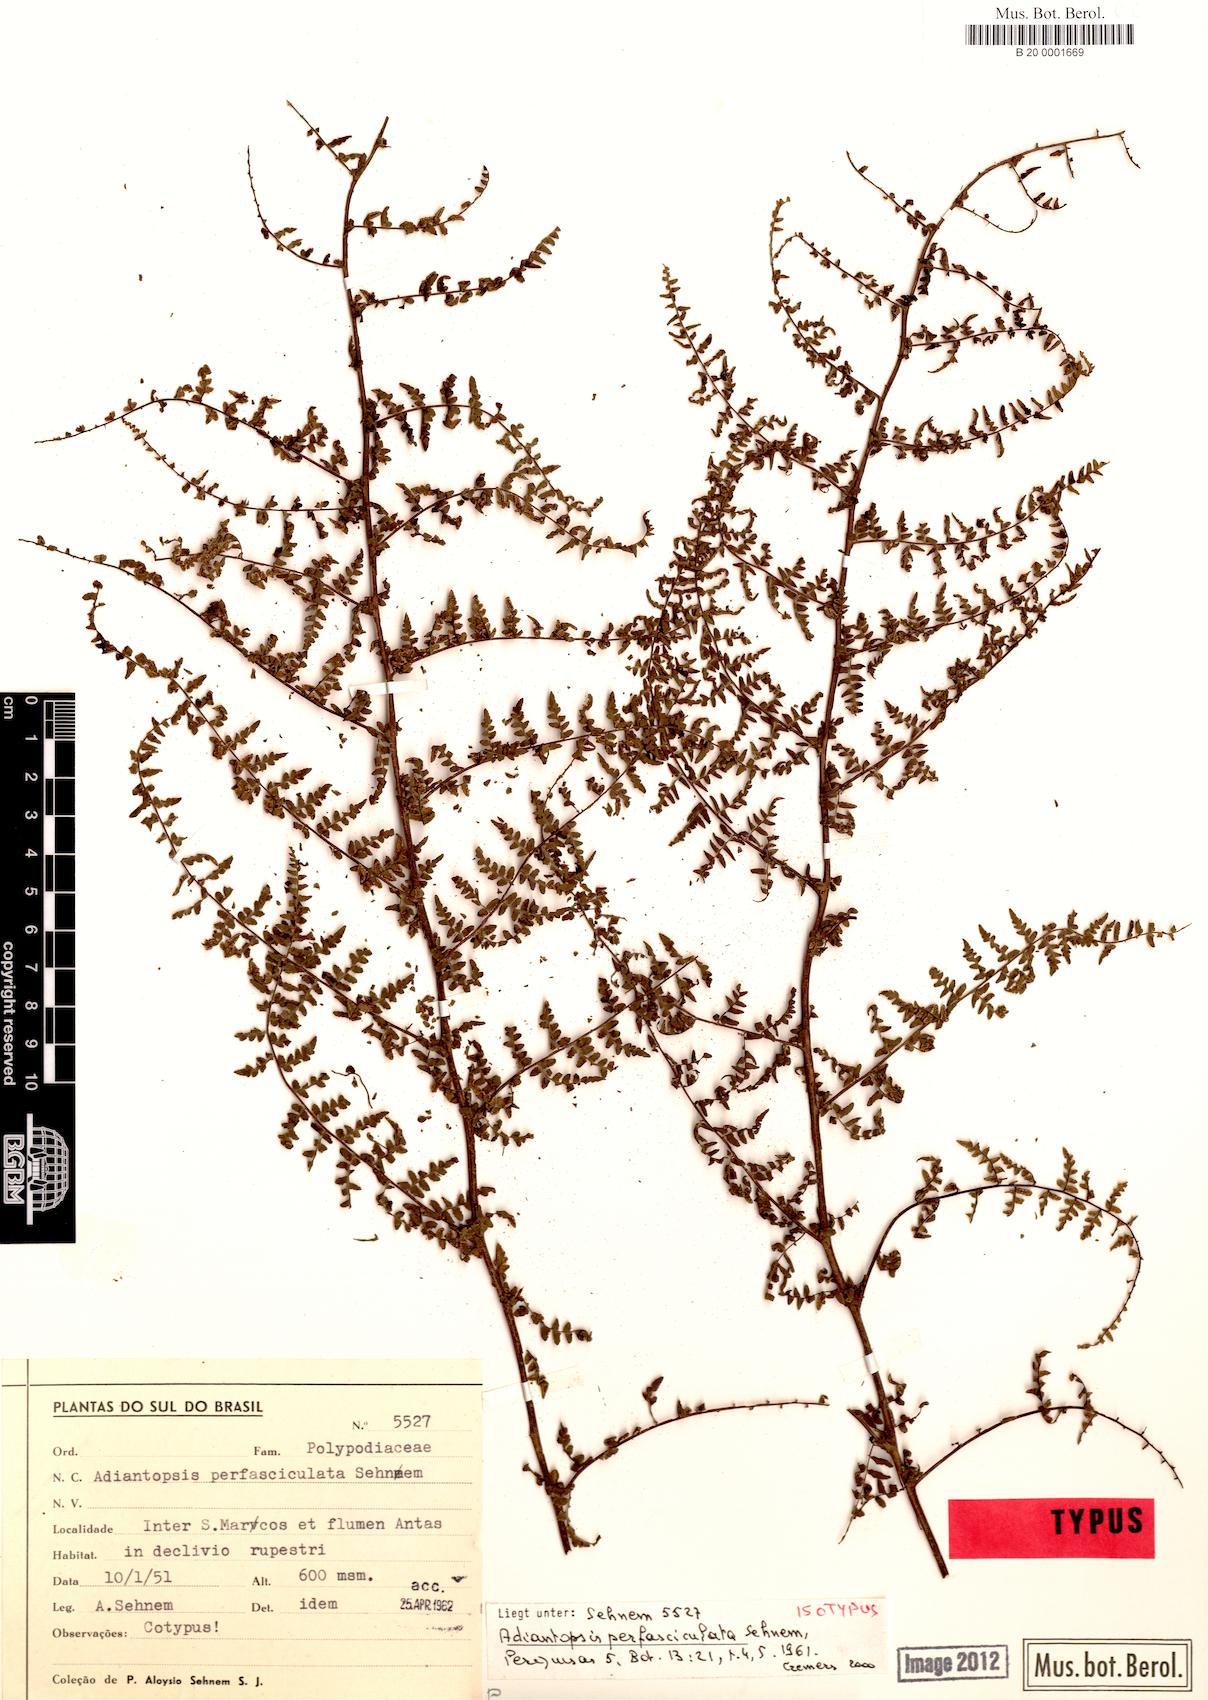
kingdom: Plantae
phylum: Tracheophyta
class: Polypodiopsida
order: Polypodiales
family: Pteridaceae
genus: Adiantopsis
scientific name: Adiantopsis perfasciculata
